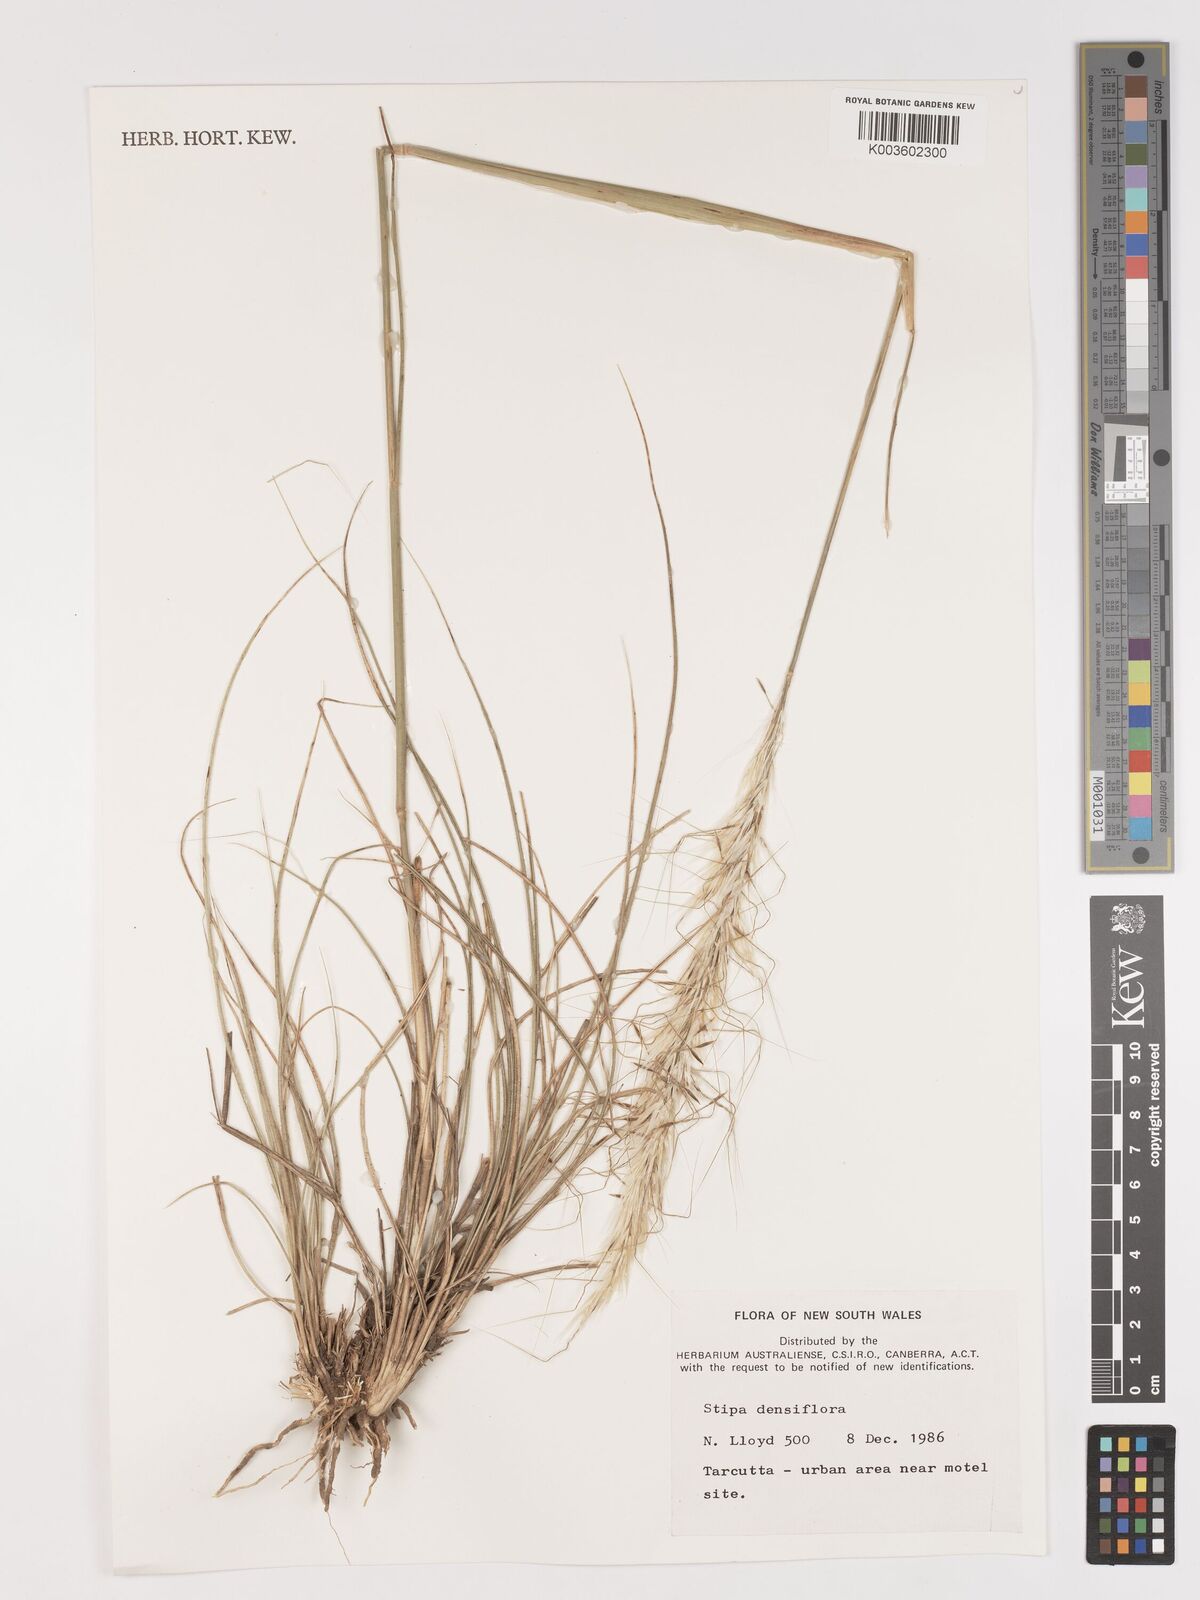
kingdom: Plantae
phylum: Tracheophyta
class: Liliopsida
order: Poales
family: Poaceae
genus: Stipa
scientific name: Stipa
